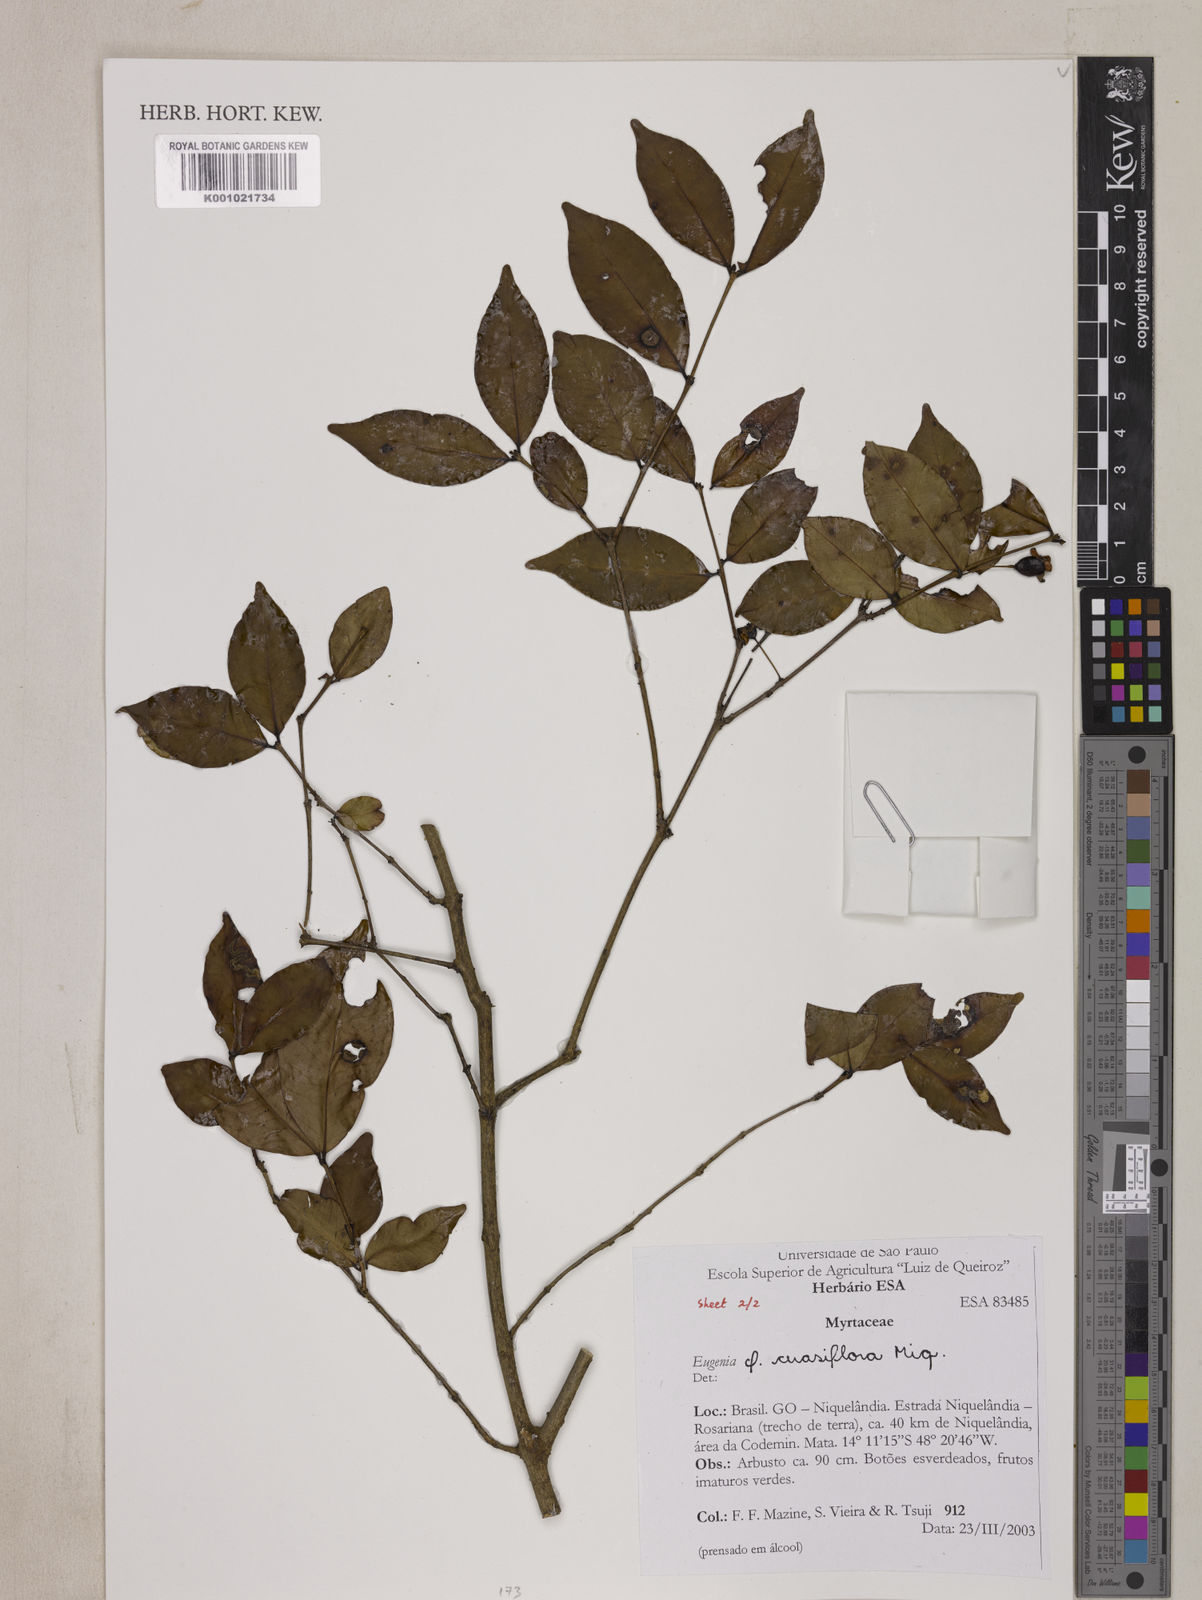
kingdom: Plantae
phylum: Tracheophyta
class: Magnoliopsida
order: Myrtales
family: Myrtaceae
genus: Eugenia
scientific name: Eugenia cerasiflora
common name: Cherry-of-the-rio-grande
